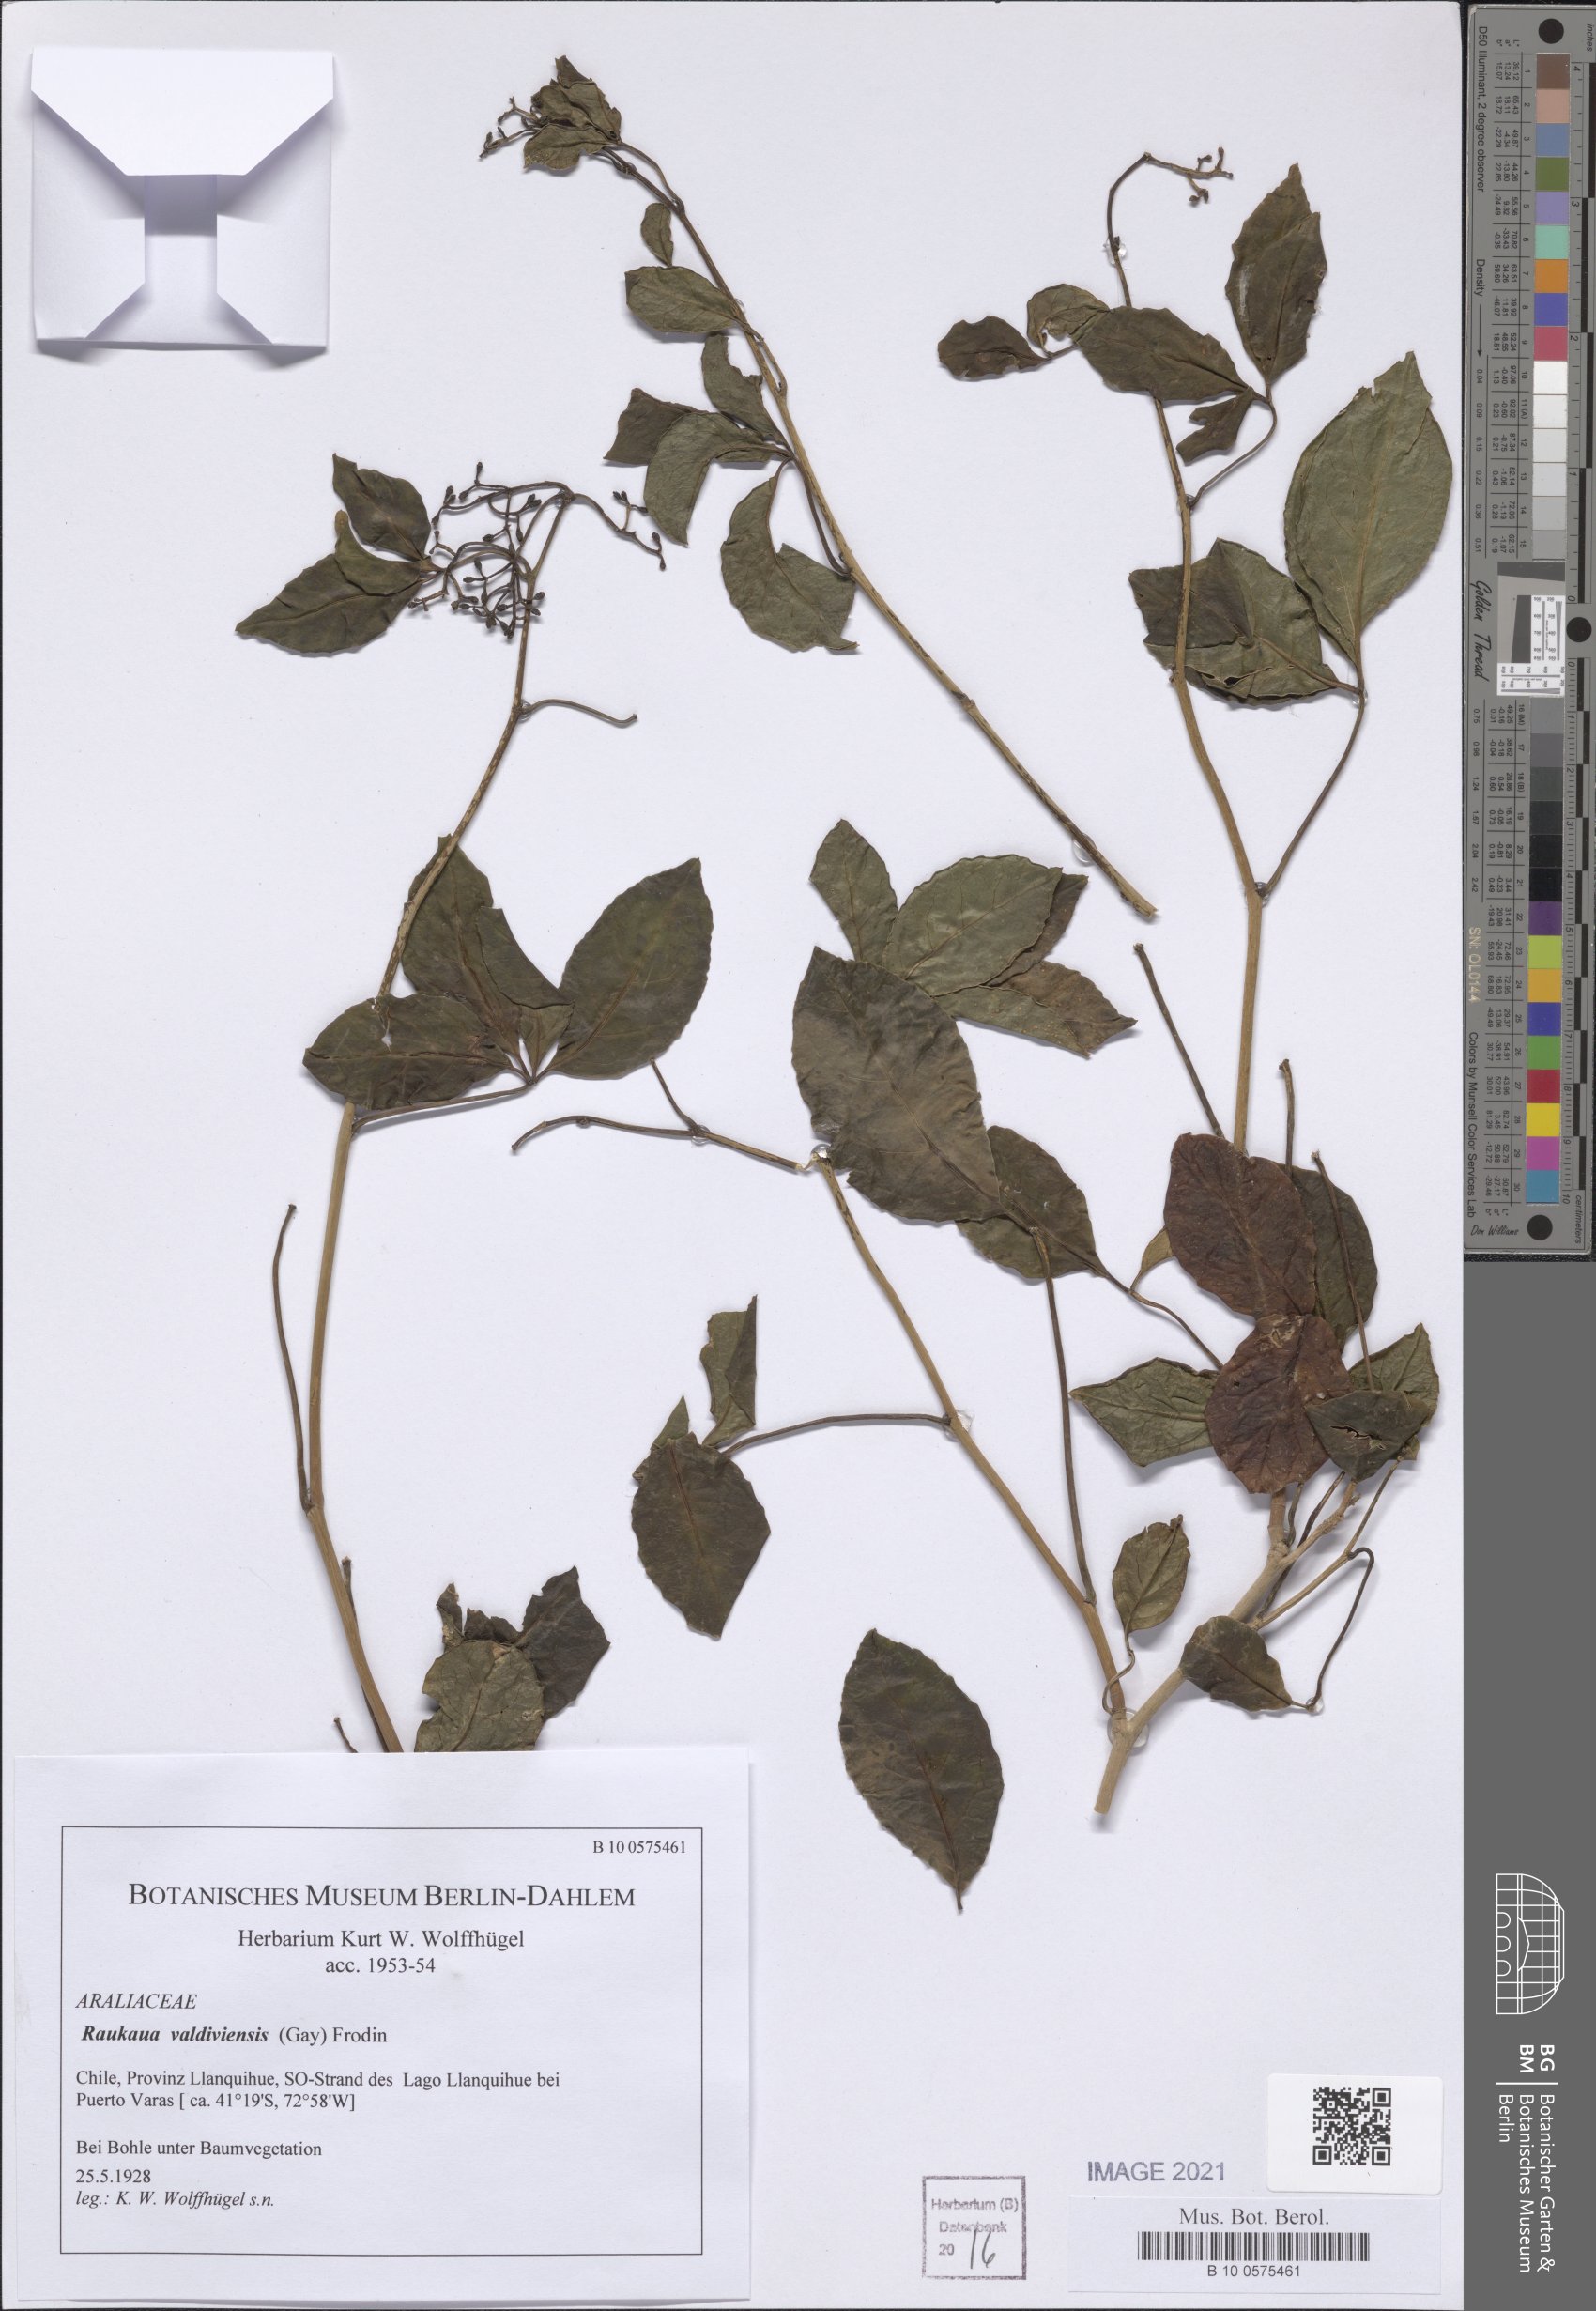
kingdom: Plantae
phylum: Tracheophyta
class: Magnoliopsida
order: Apiales
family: Araliaceae
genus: Raukaua
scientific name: Raukaua valdiviensis
